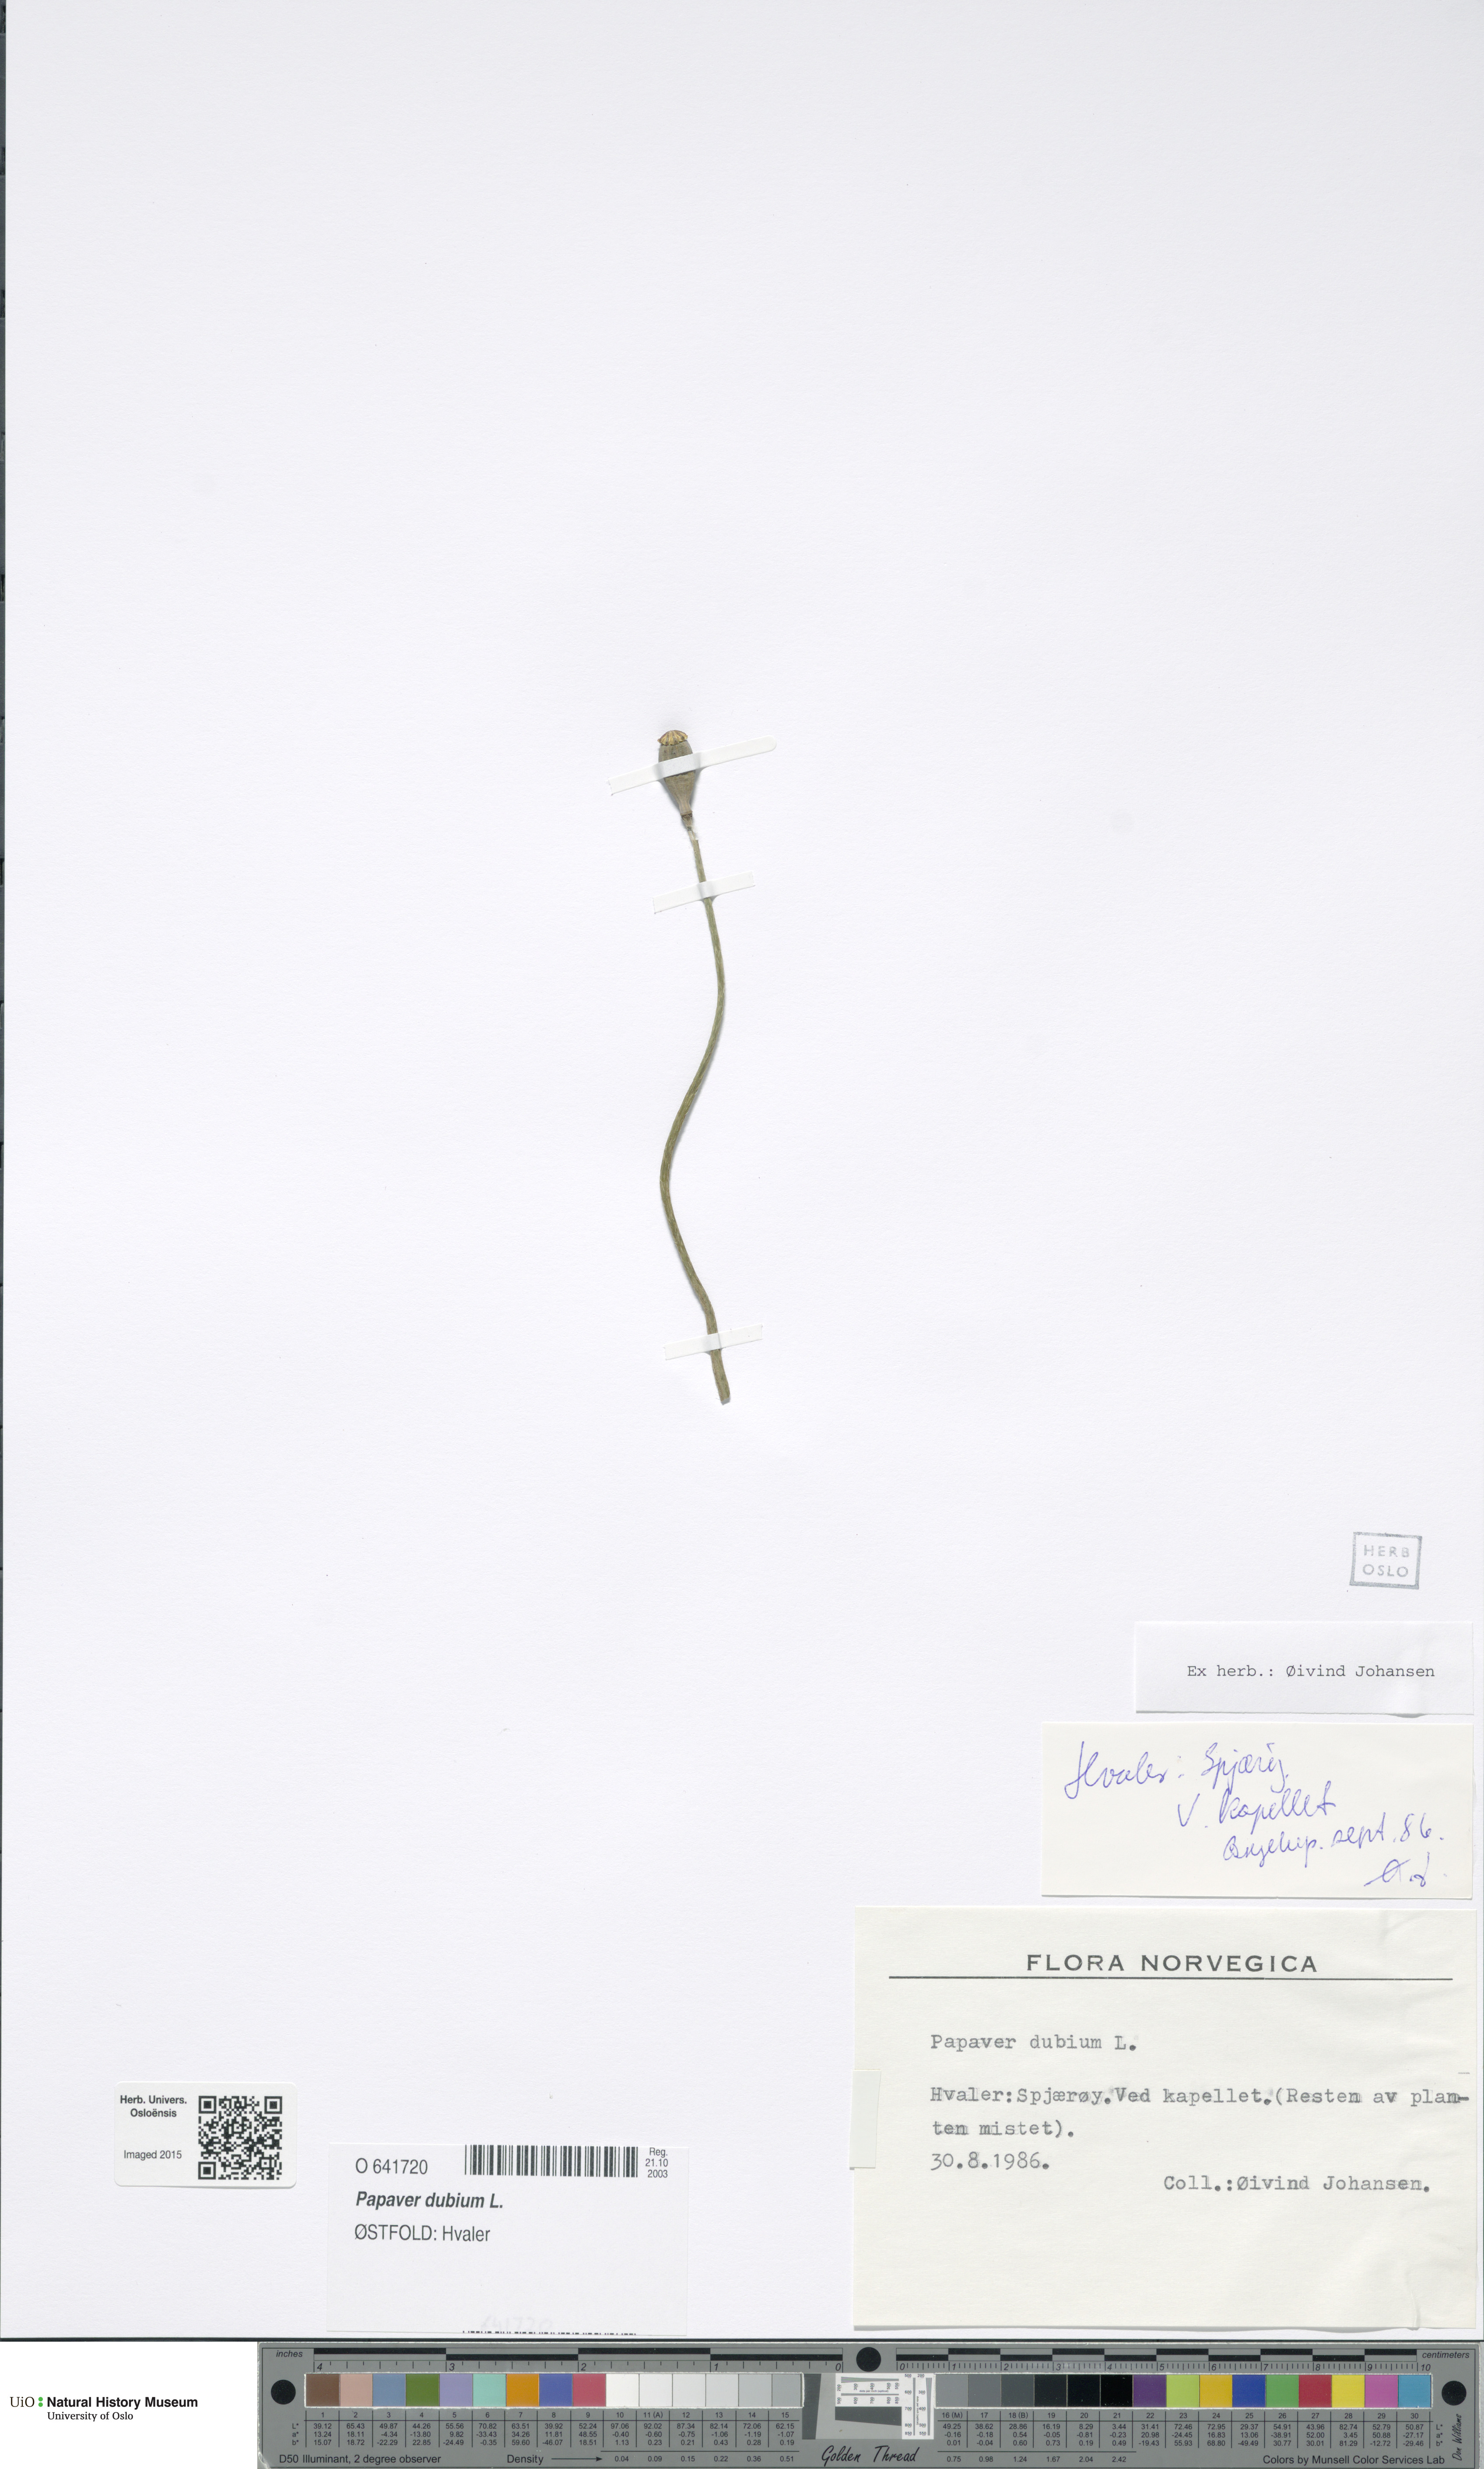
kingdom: Plantae
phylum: Tracheophyta
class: Magnoliopsida
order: Ranunculales
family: Papaveraceae
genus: Papaver
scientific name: Papaver dubium
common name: Long-headed poppy
